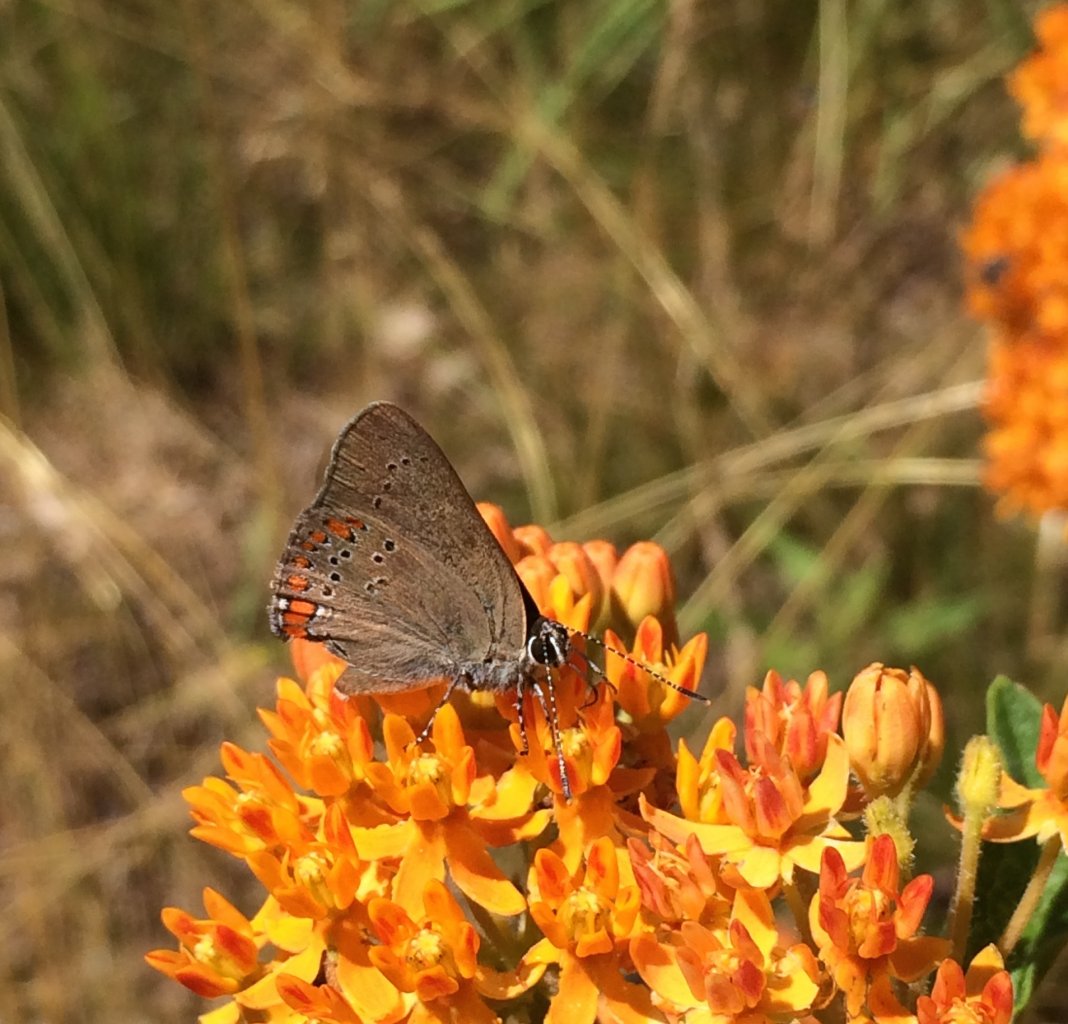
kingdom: Animalia
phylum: Arthropoda
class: Insecta
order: Lepidoptera
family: Lycaenidae
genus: Harkenclenus
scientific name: Harkenclenus titus
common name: Coral Hairstreak
